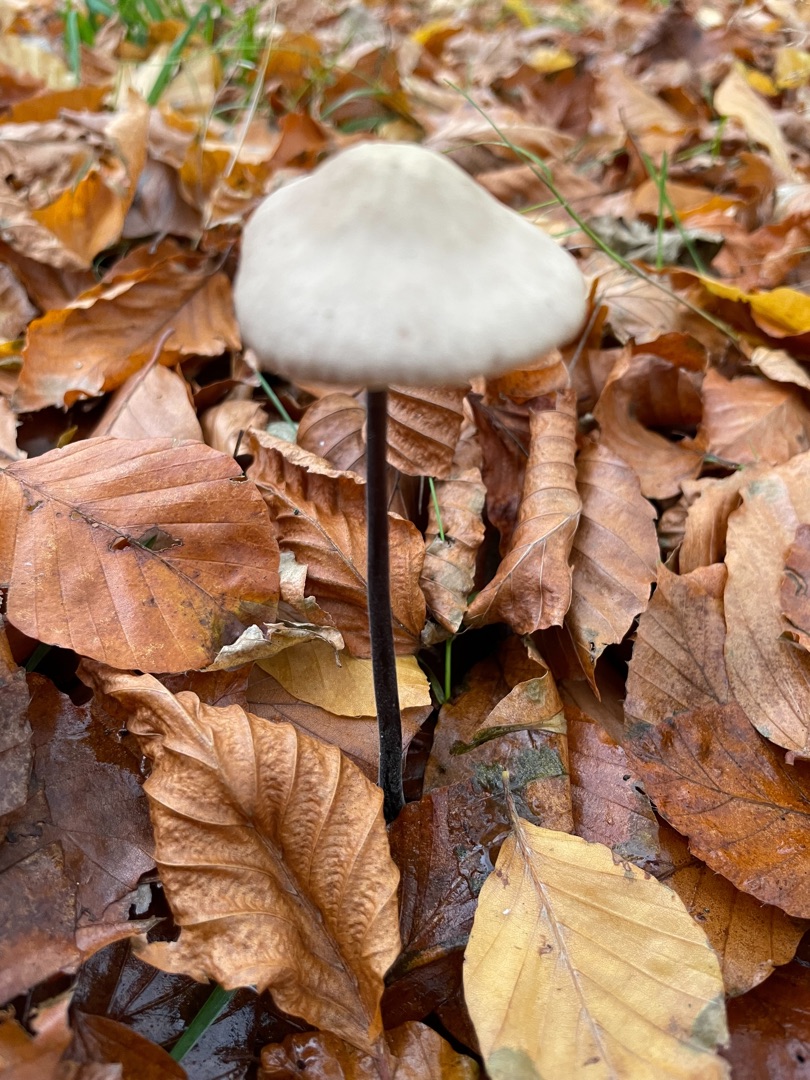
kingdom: Fungi
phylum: Basidiomycota
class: Agaricomycetes
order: Agaricales
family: Omphalotaceae
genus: Mycetinis
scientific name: Mycetinis alliaceus
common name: Stor løghat
